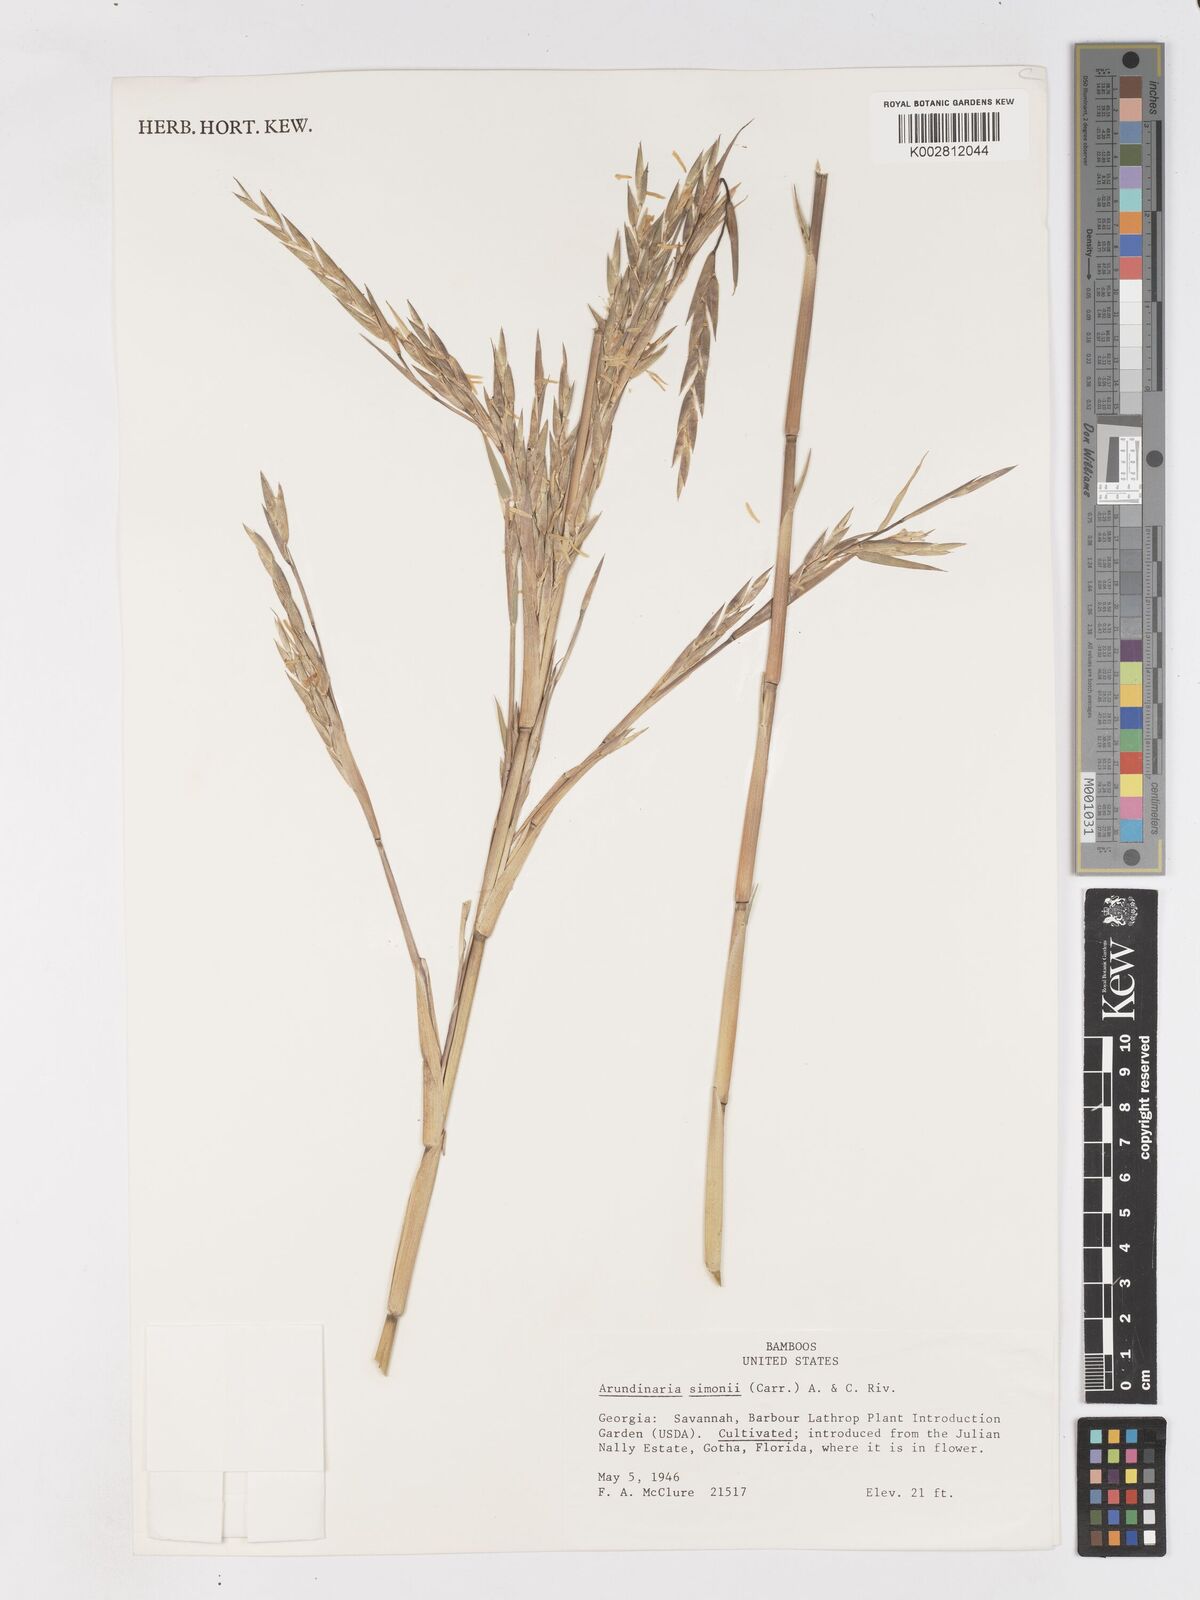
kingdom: Plantae
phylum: Tracheophyta
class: Liliopsida
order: Poales
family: Poaceae
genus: Pleioblastus
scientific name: Pleioblastus simonii
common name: Simon bamboo
